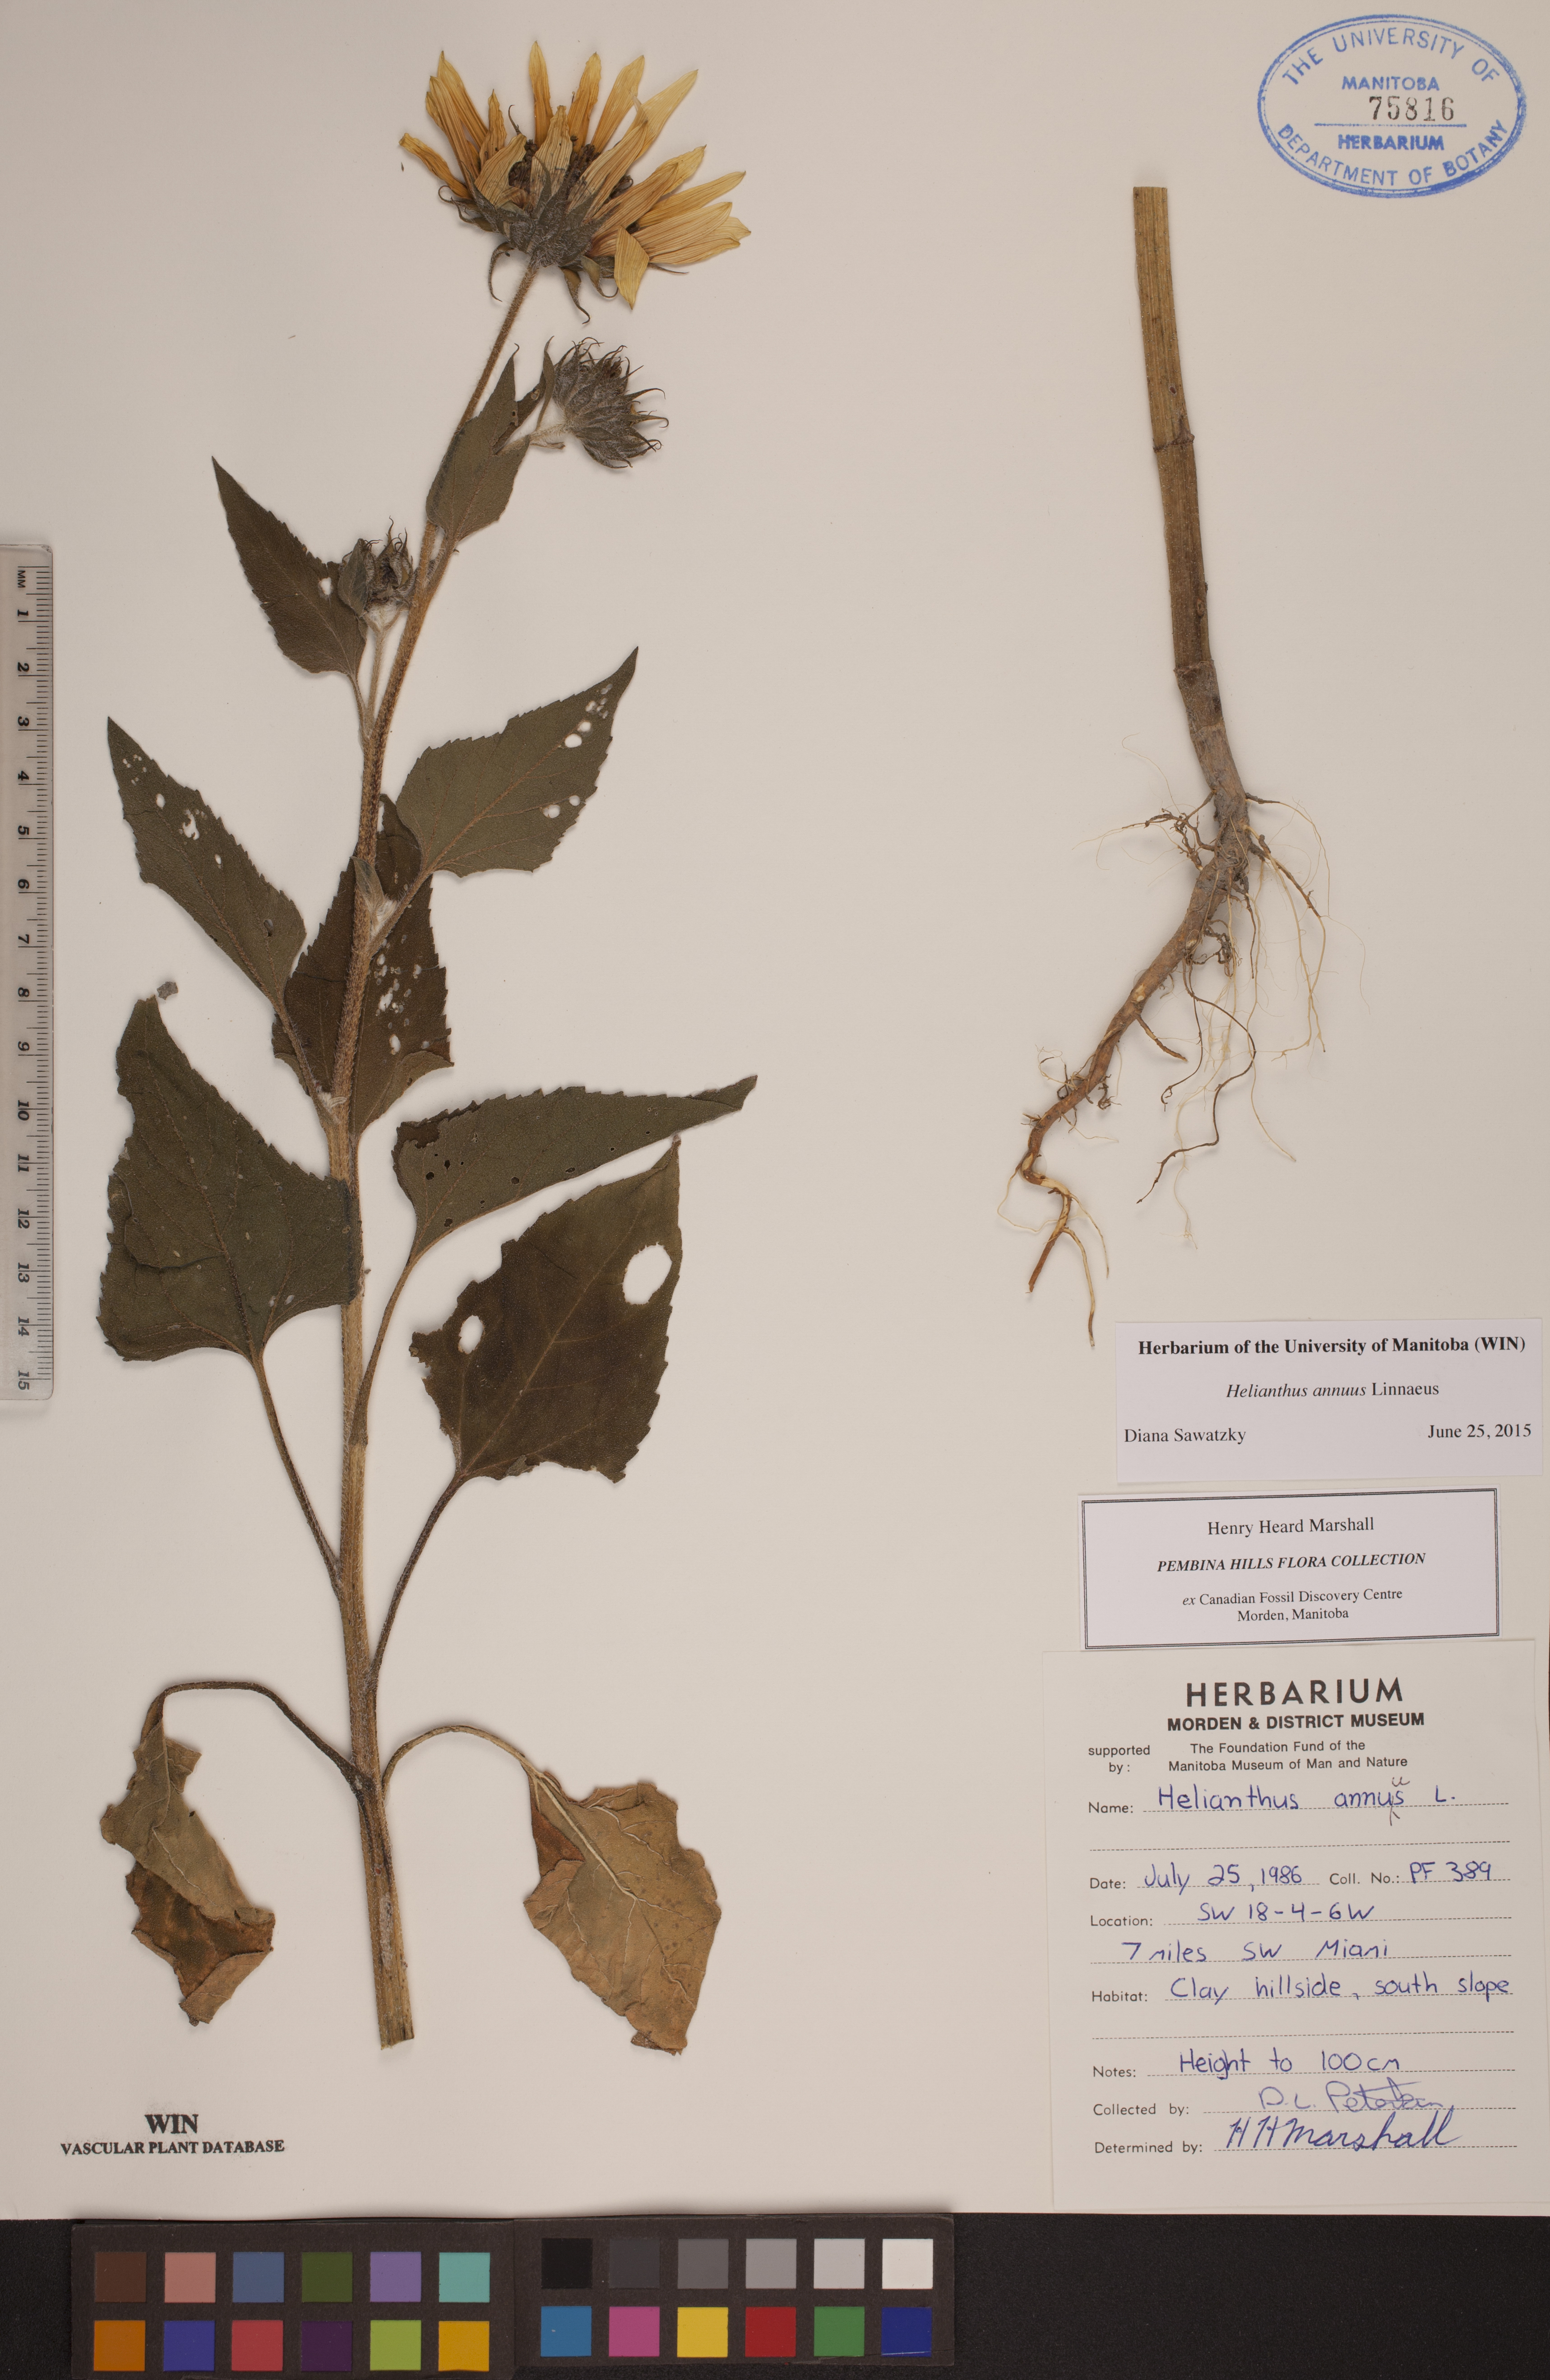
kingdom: Plantae
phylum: Tracheophyta
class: Magnoliopsida
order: Asterales
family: Asteraceae
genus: Helianthus
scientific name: Helianthus annuus
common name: Sunflower
